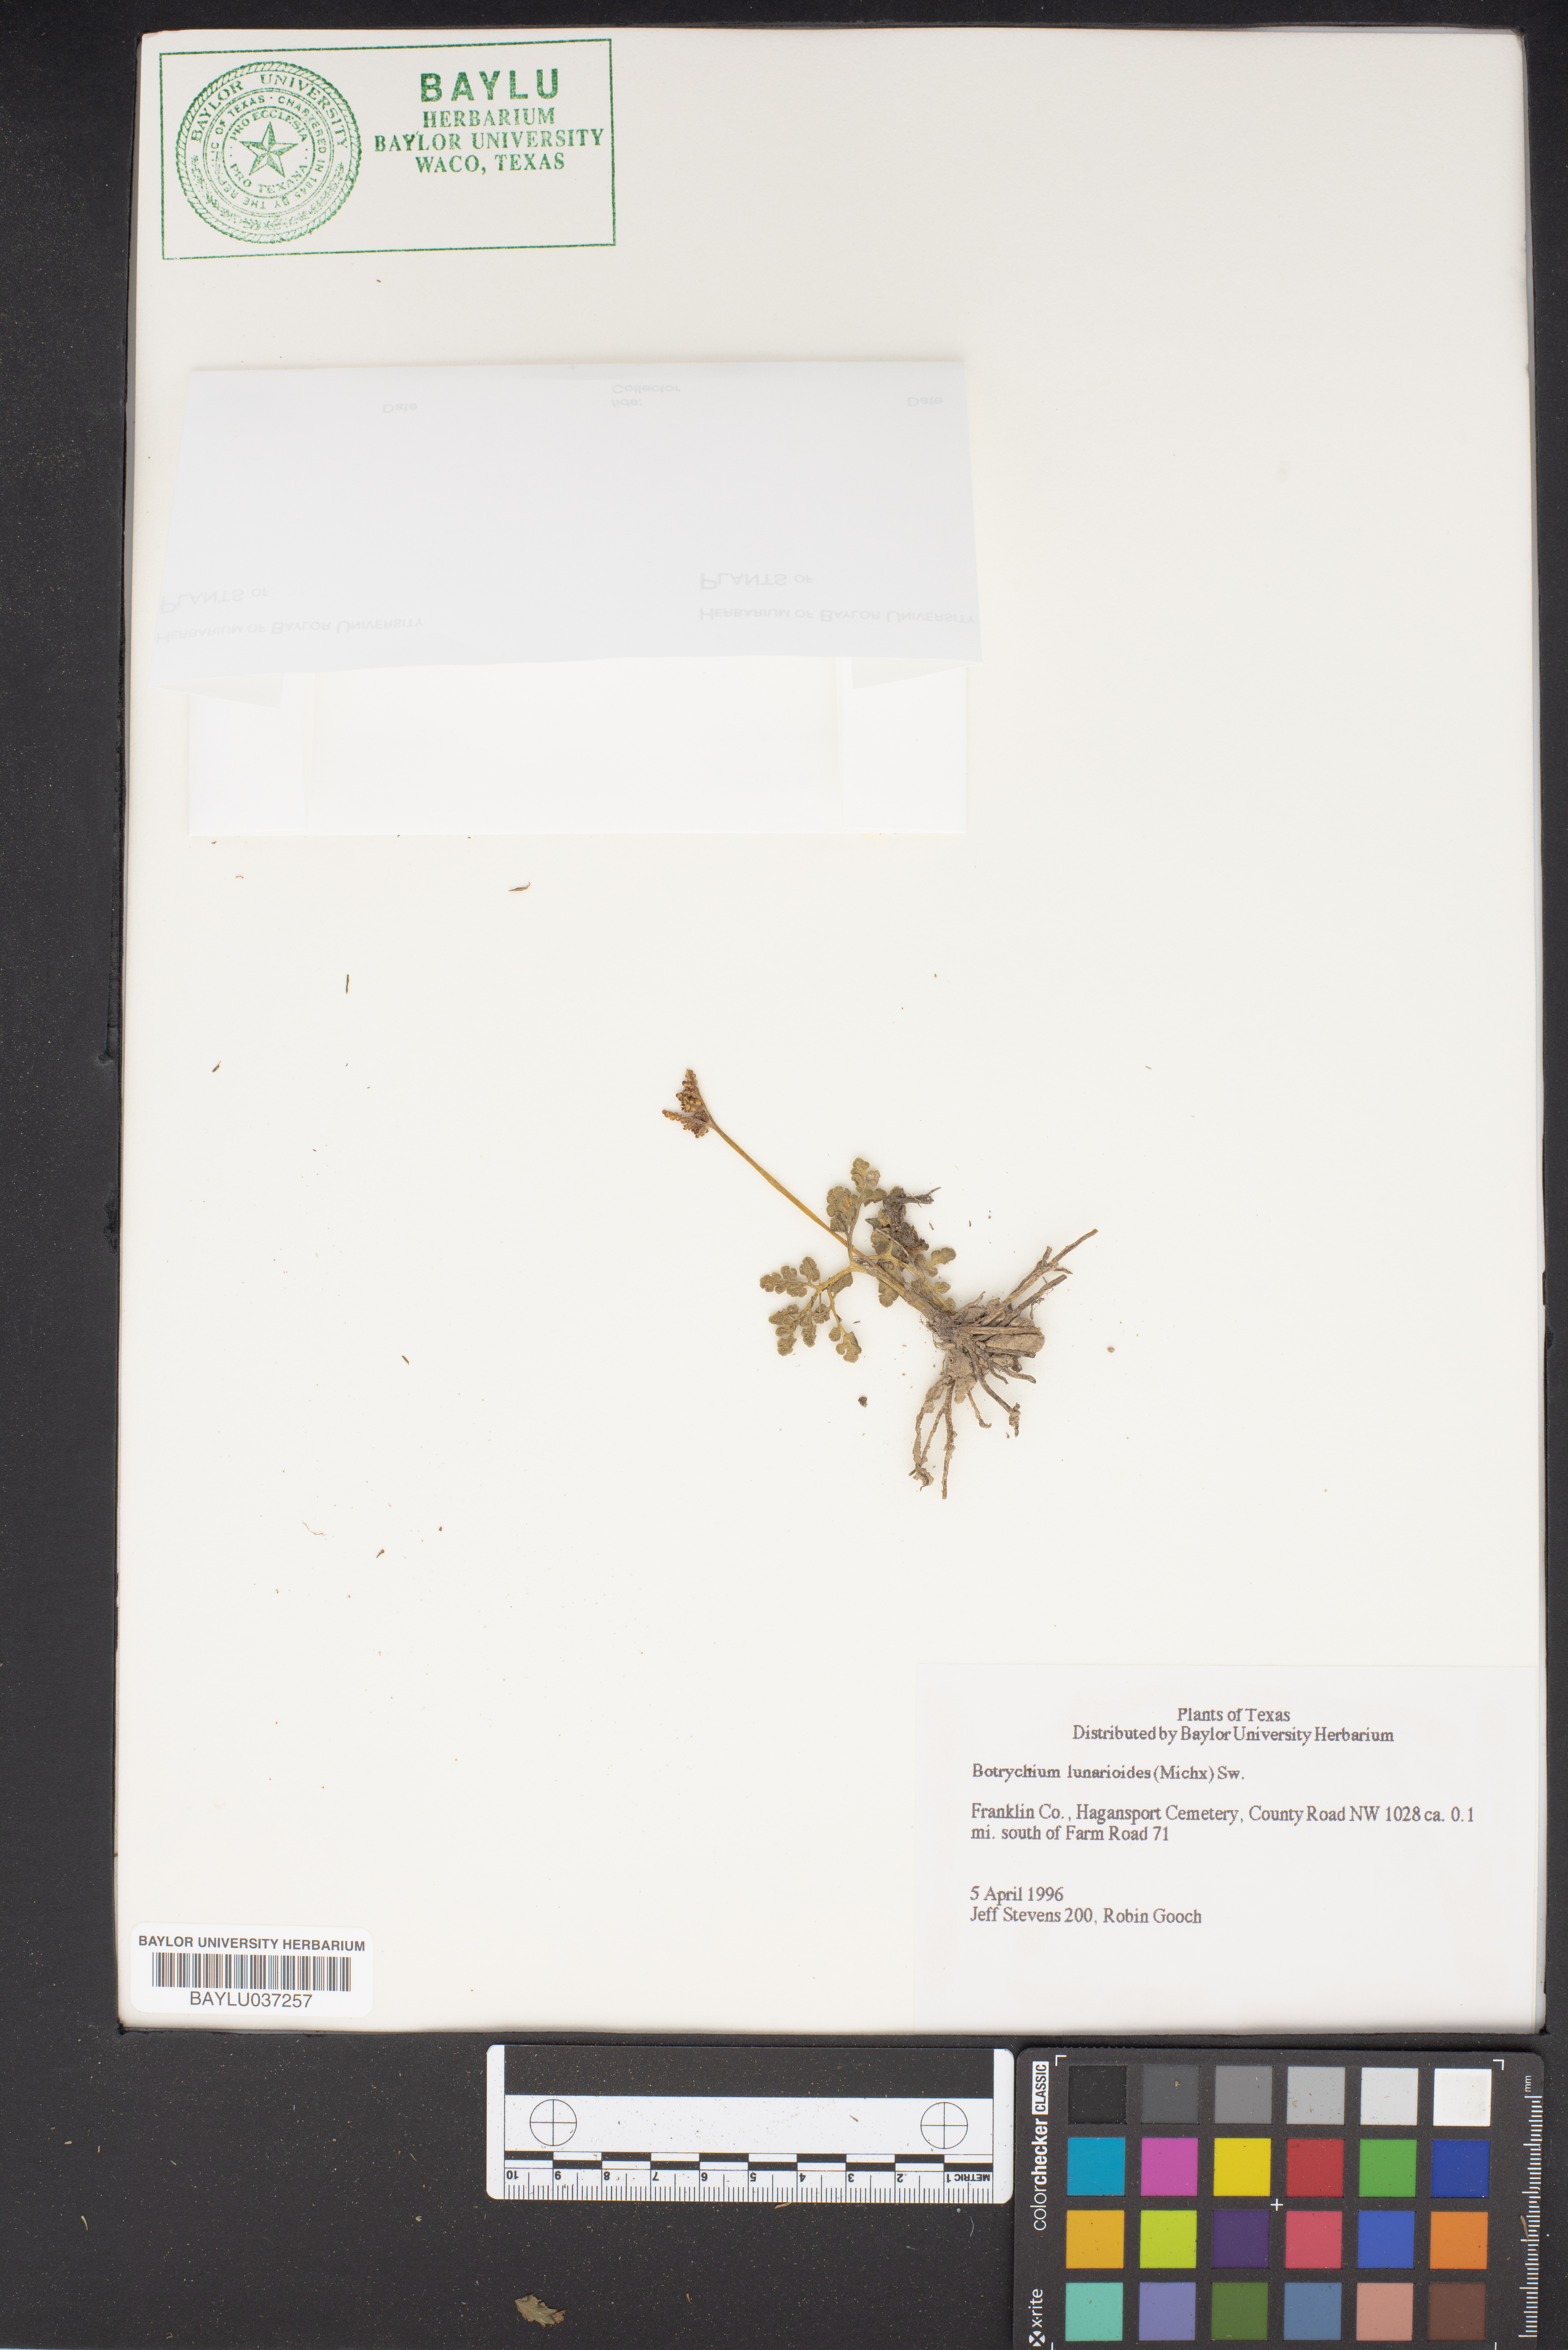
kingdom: Plantae
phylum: Tracheophyta
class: Polypodiopsida
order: Ophioglossales
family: Ophioglossaceae
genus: Sceptridium
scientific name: Sceptridium lunarioides
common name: Prostrate grapefern
